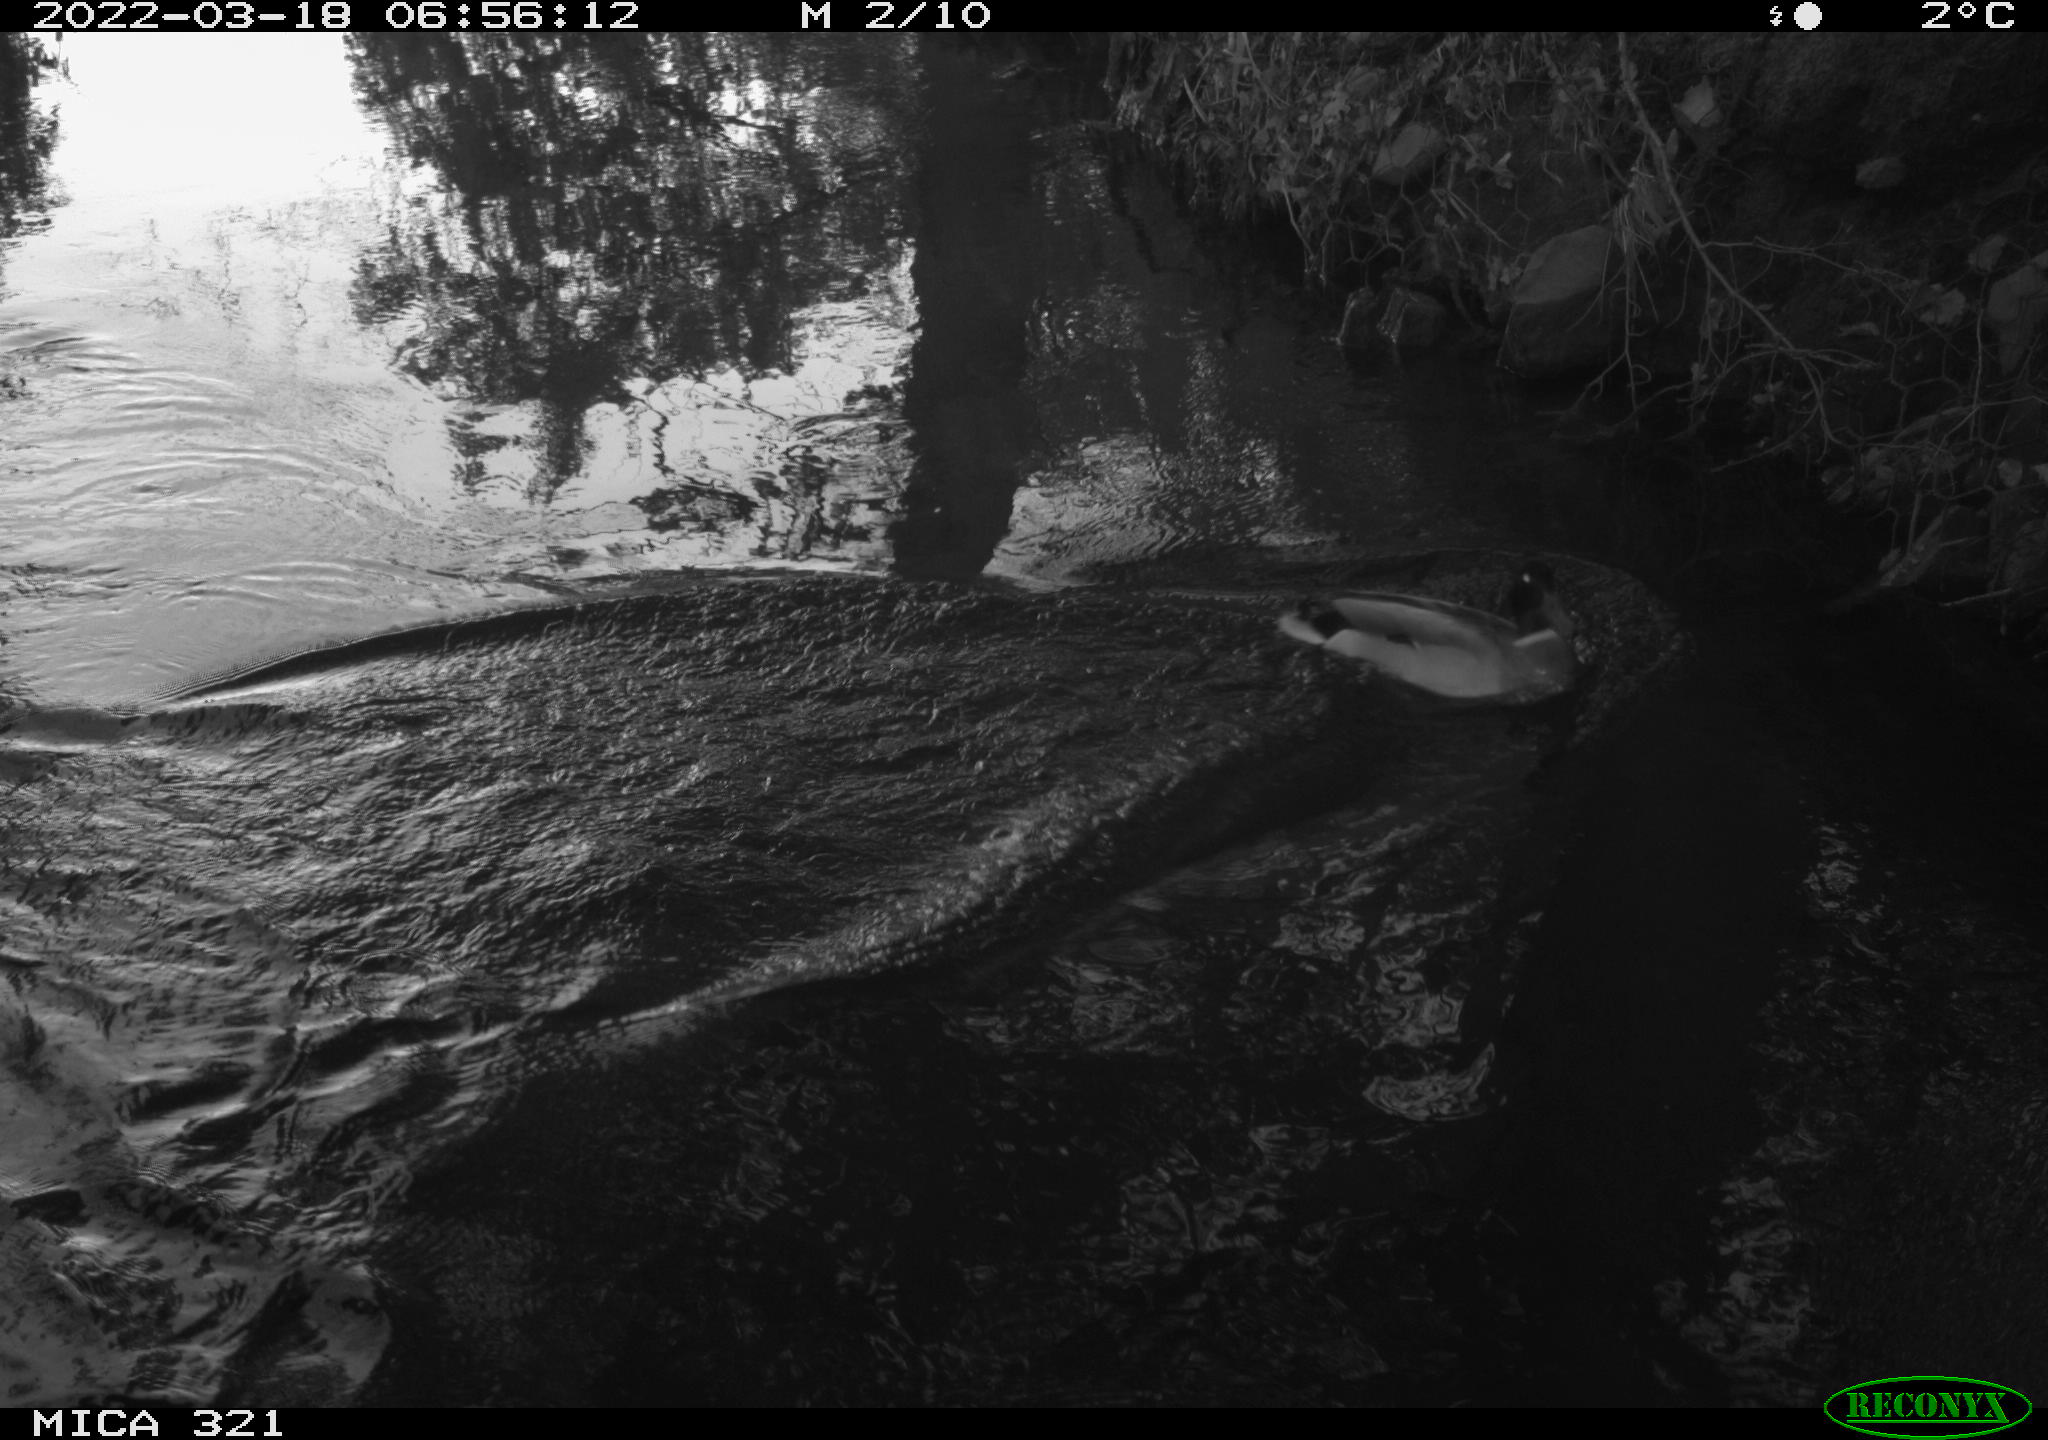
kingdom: Animalia
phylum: Chordata
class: Aves
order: Anseriformes
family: Anatidae
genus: Anas
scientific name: Anas platyrhynchos
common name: Mallard
